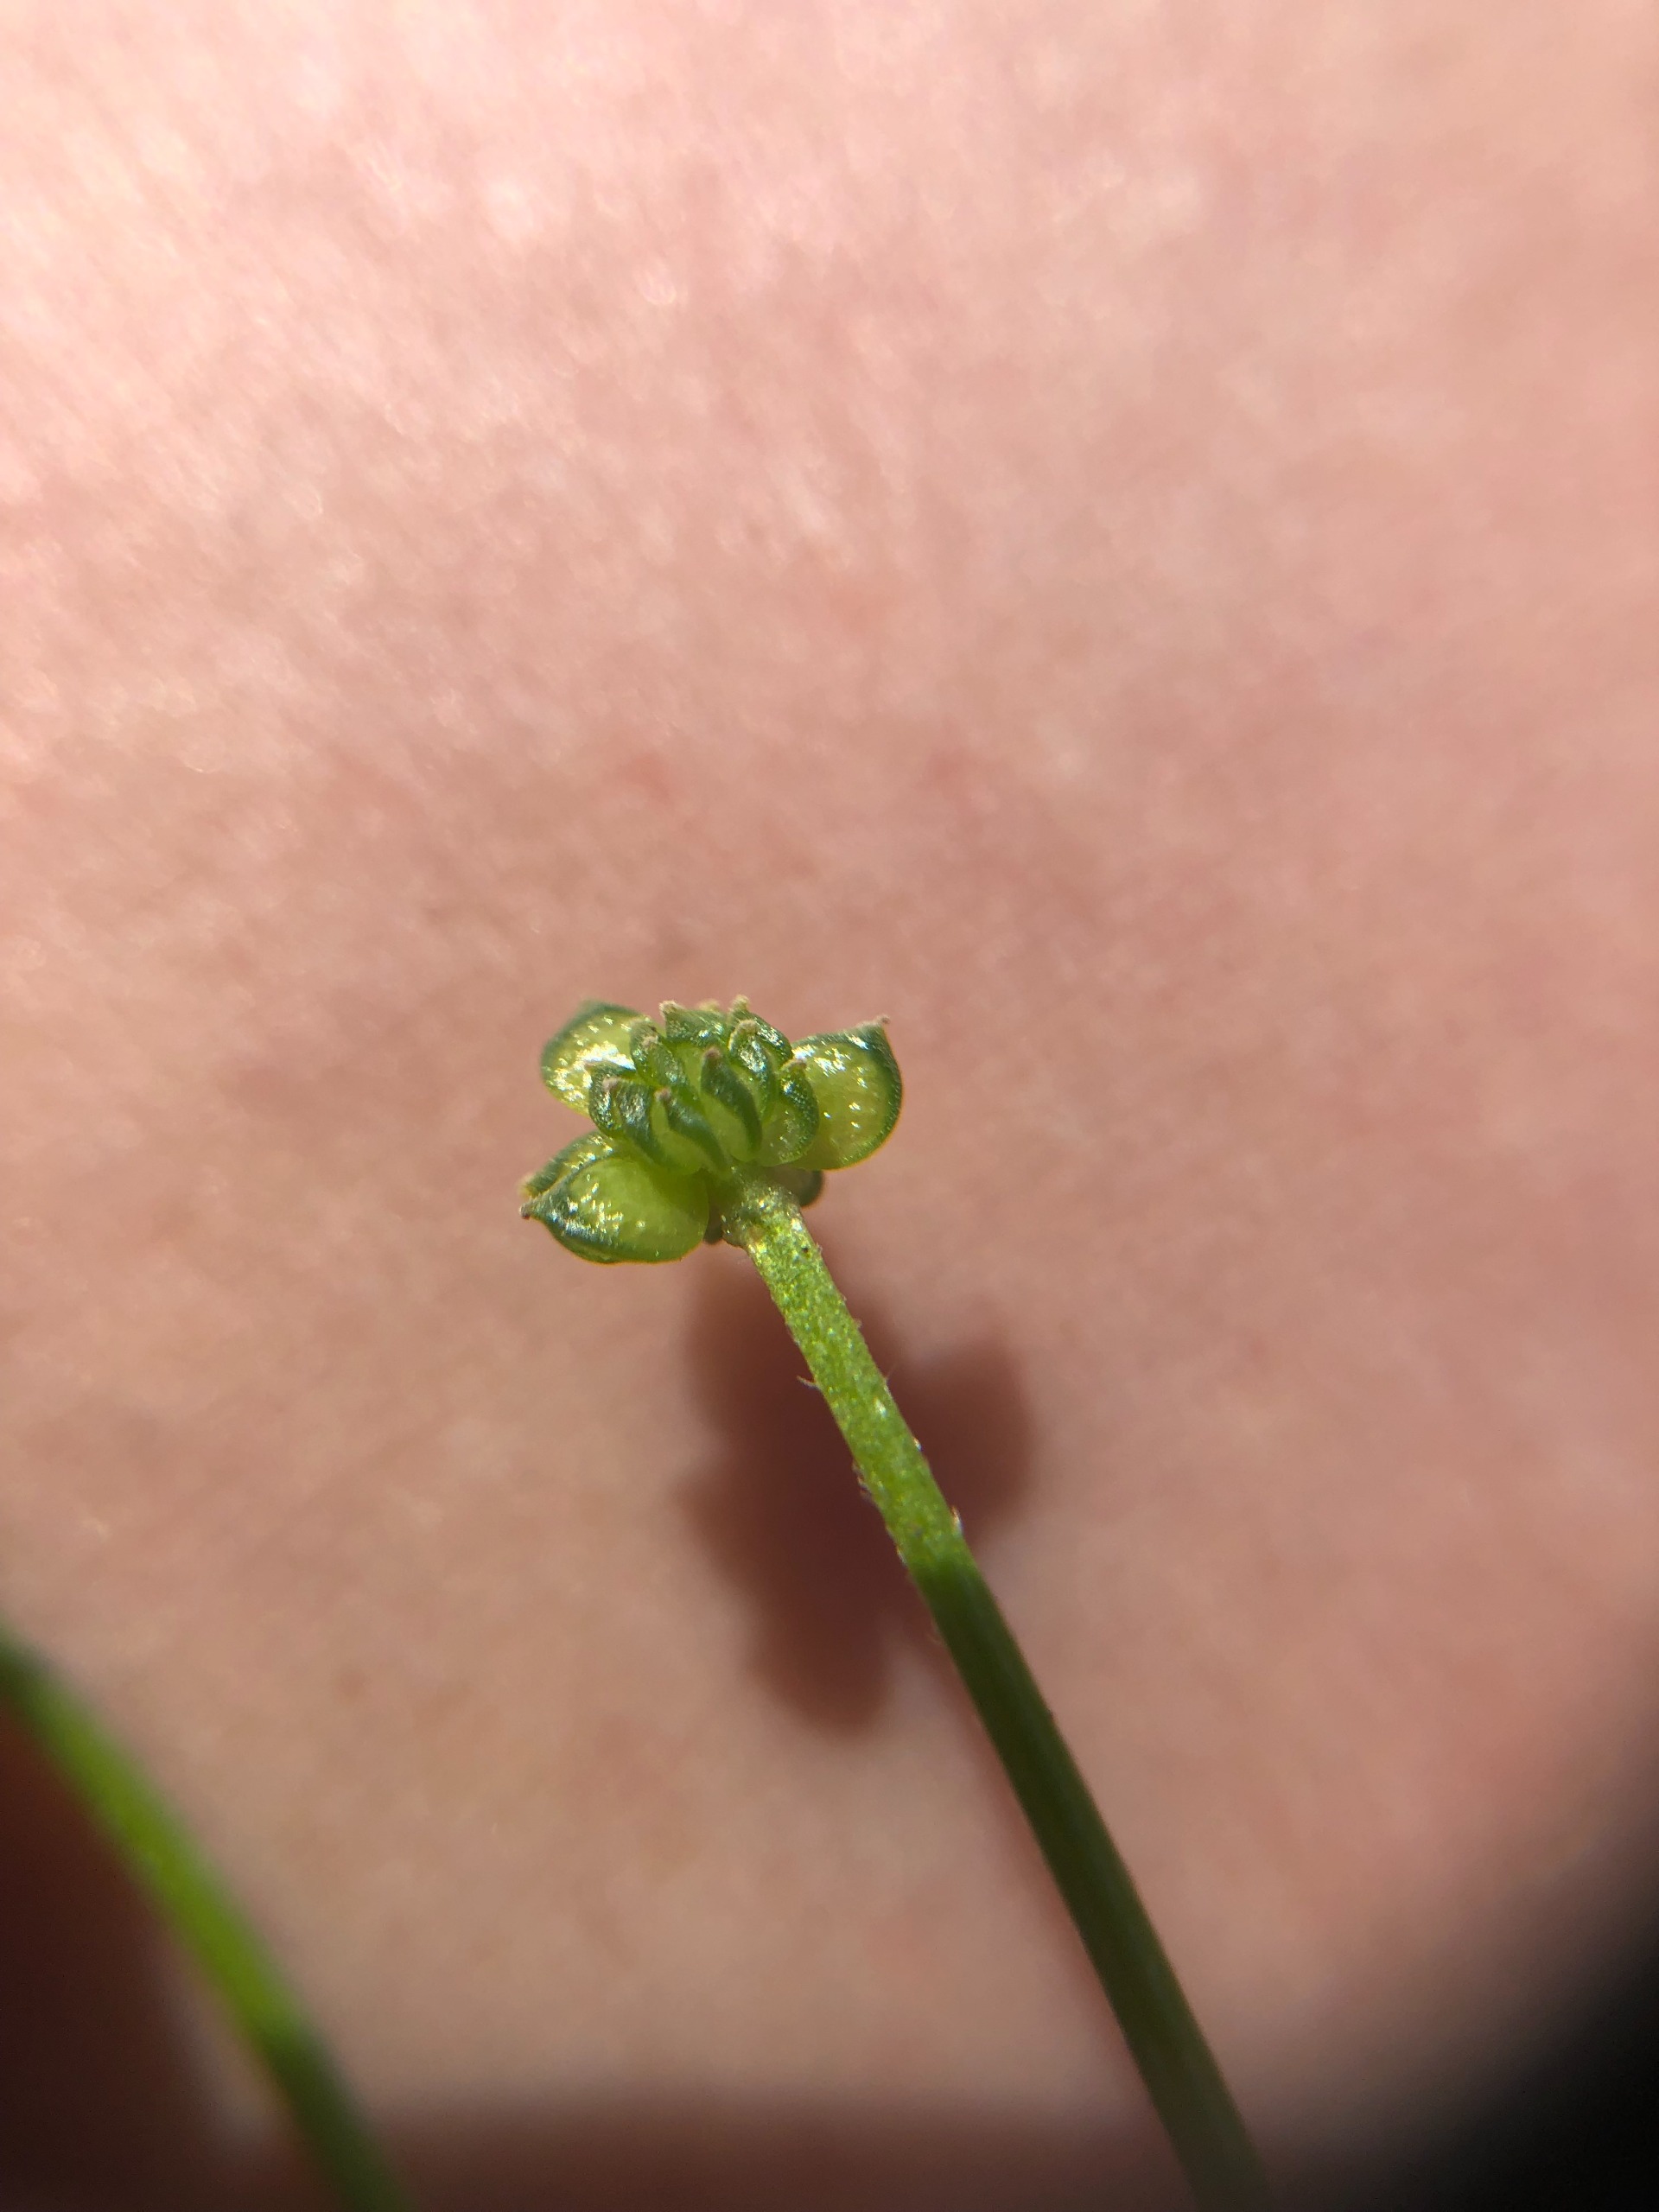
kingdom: Plantae
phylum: Tracheophyta
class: Magnoliopsida
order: Ranunculales
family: Ranunculaceae
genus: Ranunculus
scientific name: Ranunculus sardous
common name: Stivhåret ranunkel
